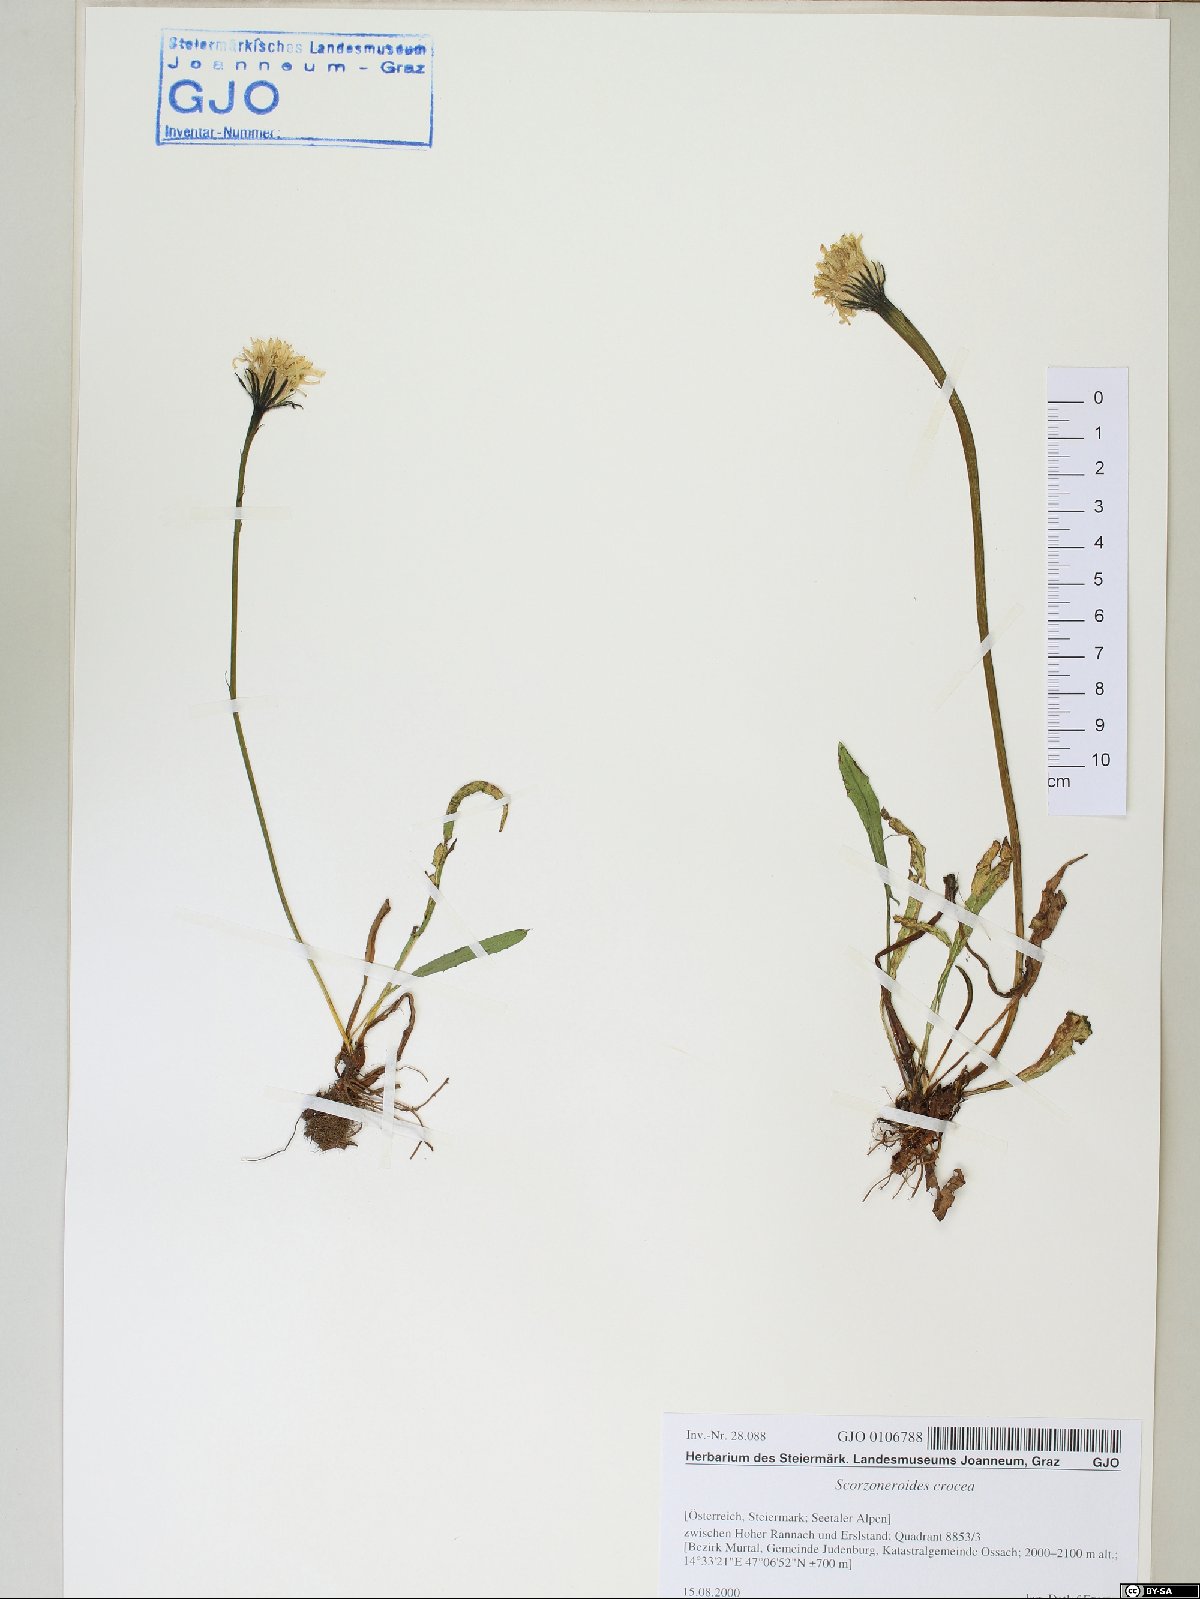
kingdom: Plantae
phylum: Tracheophyta
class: Magnoliopsida
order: Asterales
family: Asteraceae
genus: Scorzoneroides
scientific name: Scorzoneroides crocea
